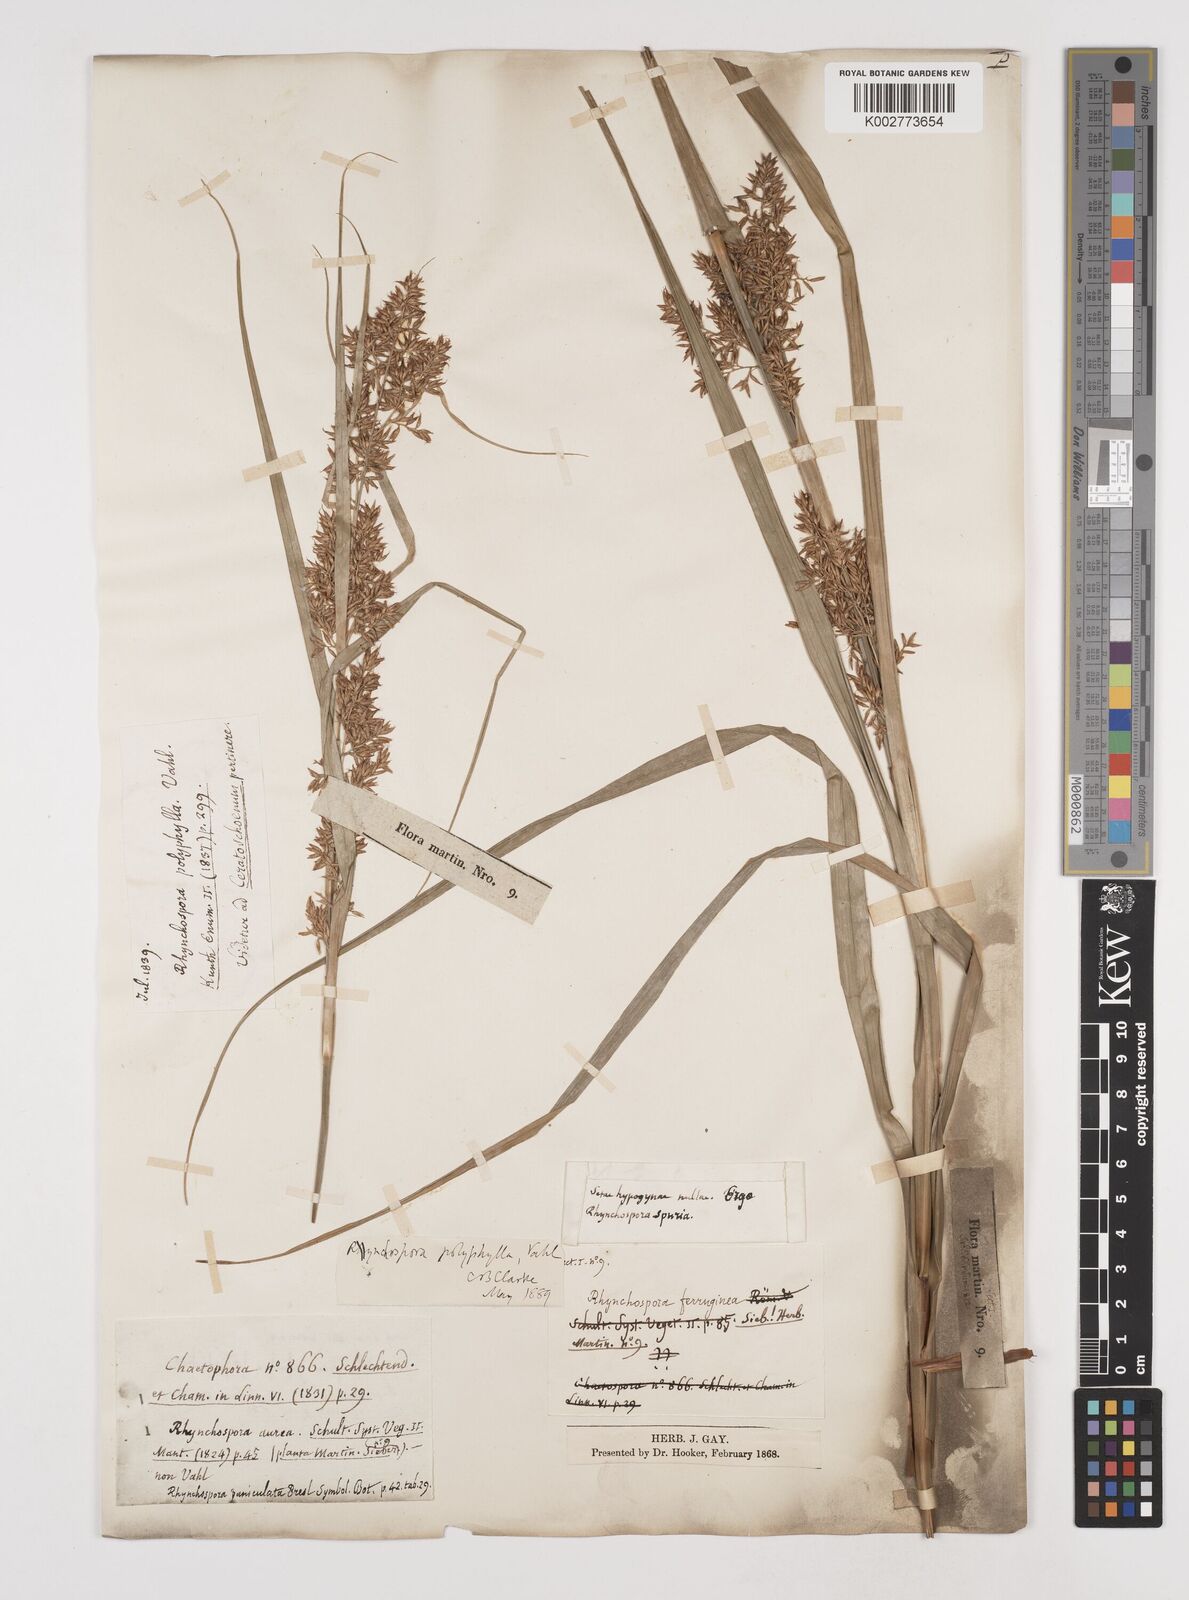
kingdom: Plantae
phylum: Tracheophyta
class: Liliopsida
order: Poales
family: Cyperaceae
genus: Rhynchospora
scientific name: Rhynchospora polyphylla
